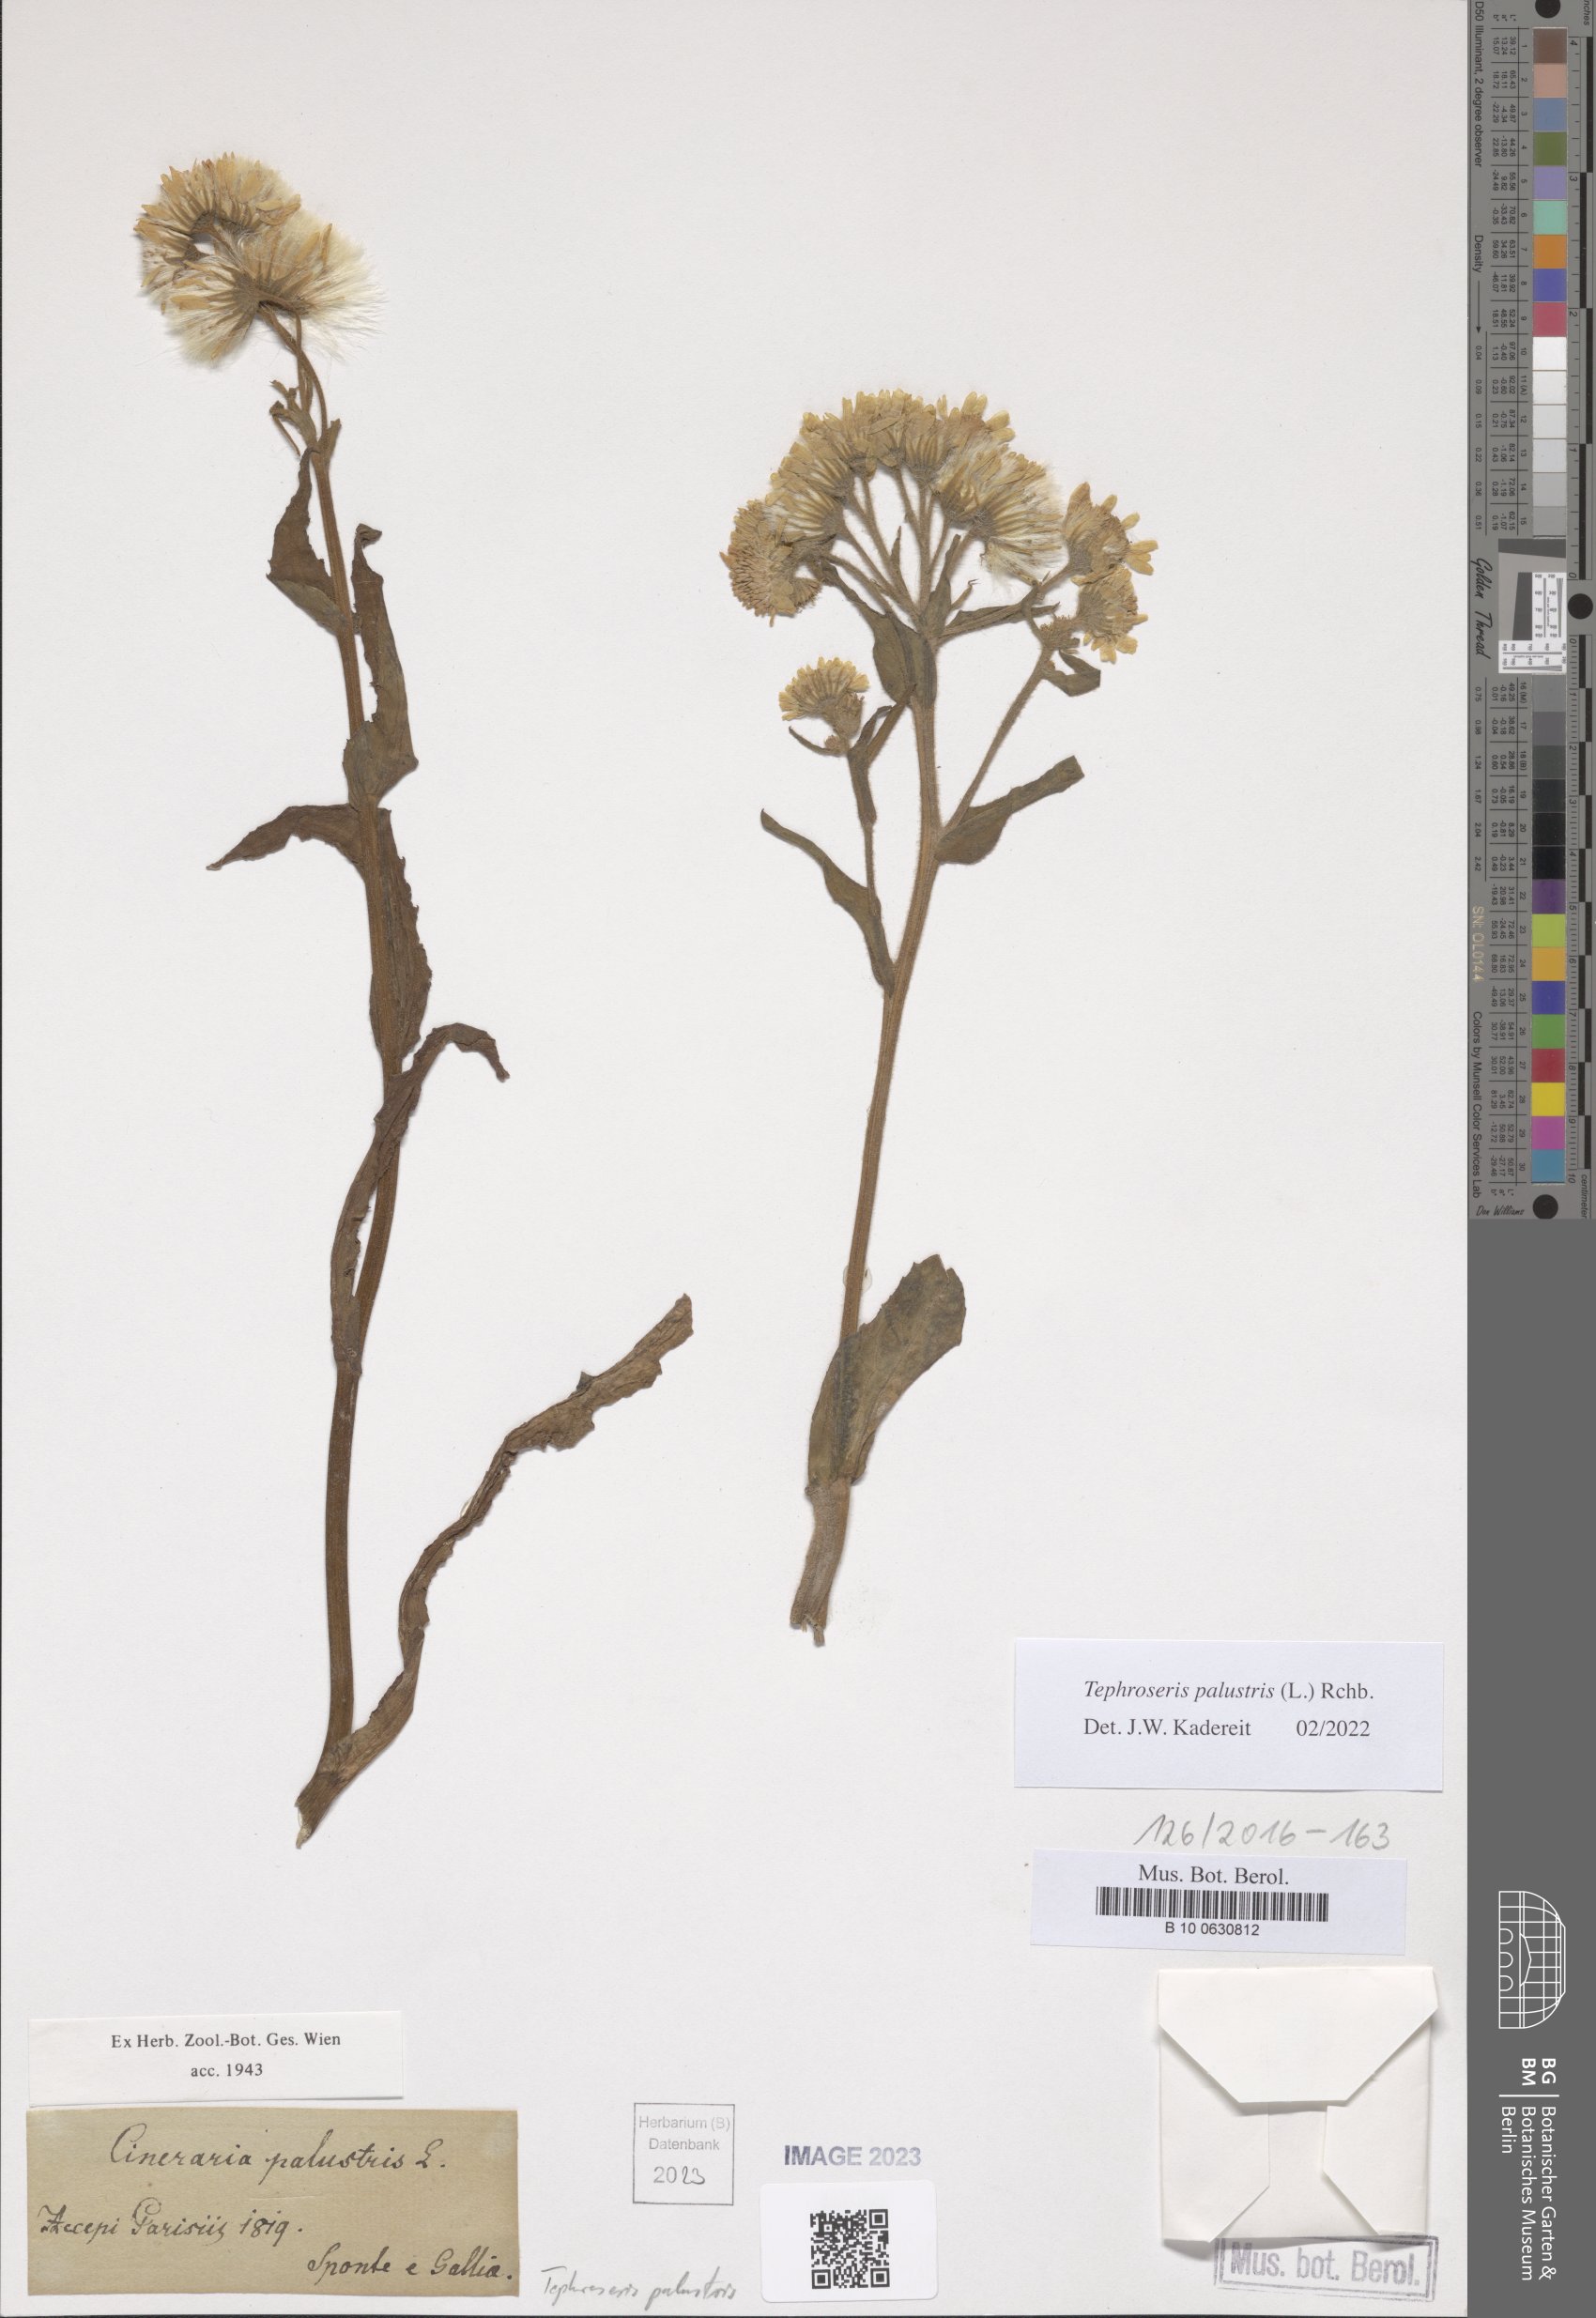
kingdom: Plantae
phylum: Tracheophyta
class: Magnoliopsida
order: Asterales
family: Asteraceae
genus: Tephroseris
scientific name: Tephroseris palustris
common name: Marsh fleawort
